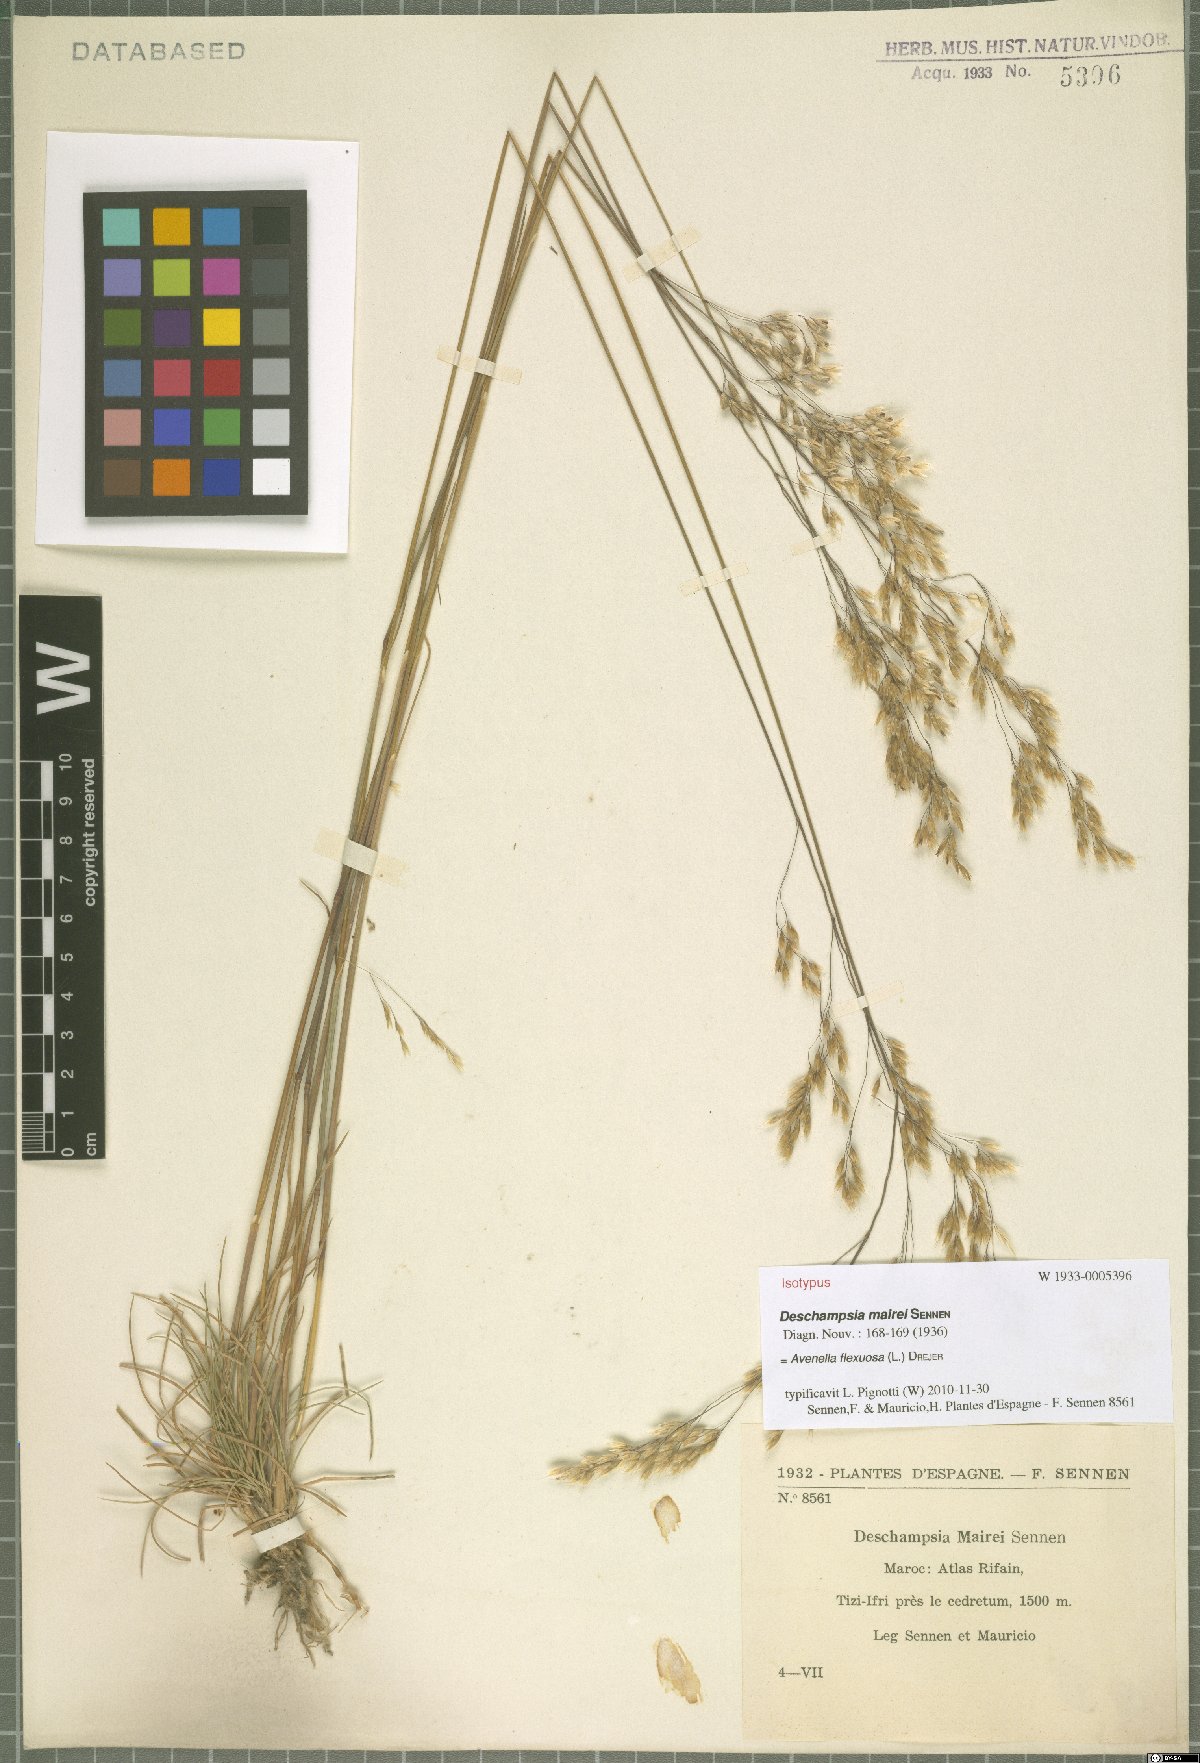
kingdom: Plantae
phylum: Tracheophyta
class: Liliopsida
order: Poales
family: Poaceae
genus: Avenella
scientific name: Avenella flexuosa
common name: Wavy hairgrass
